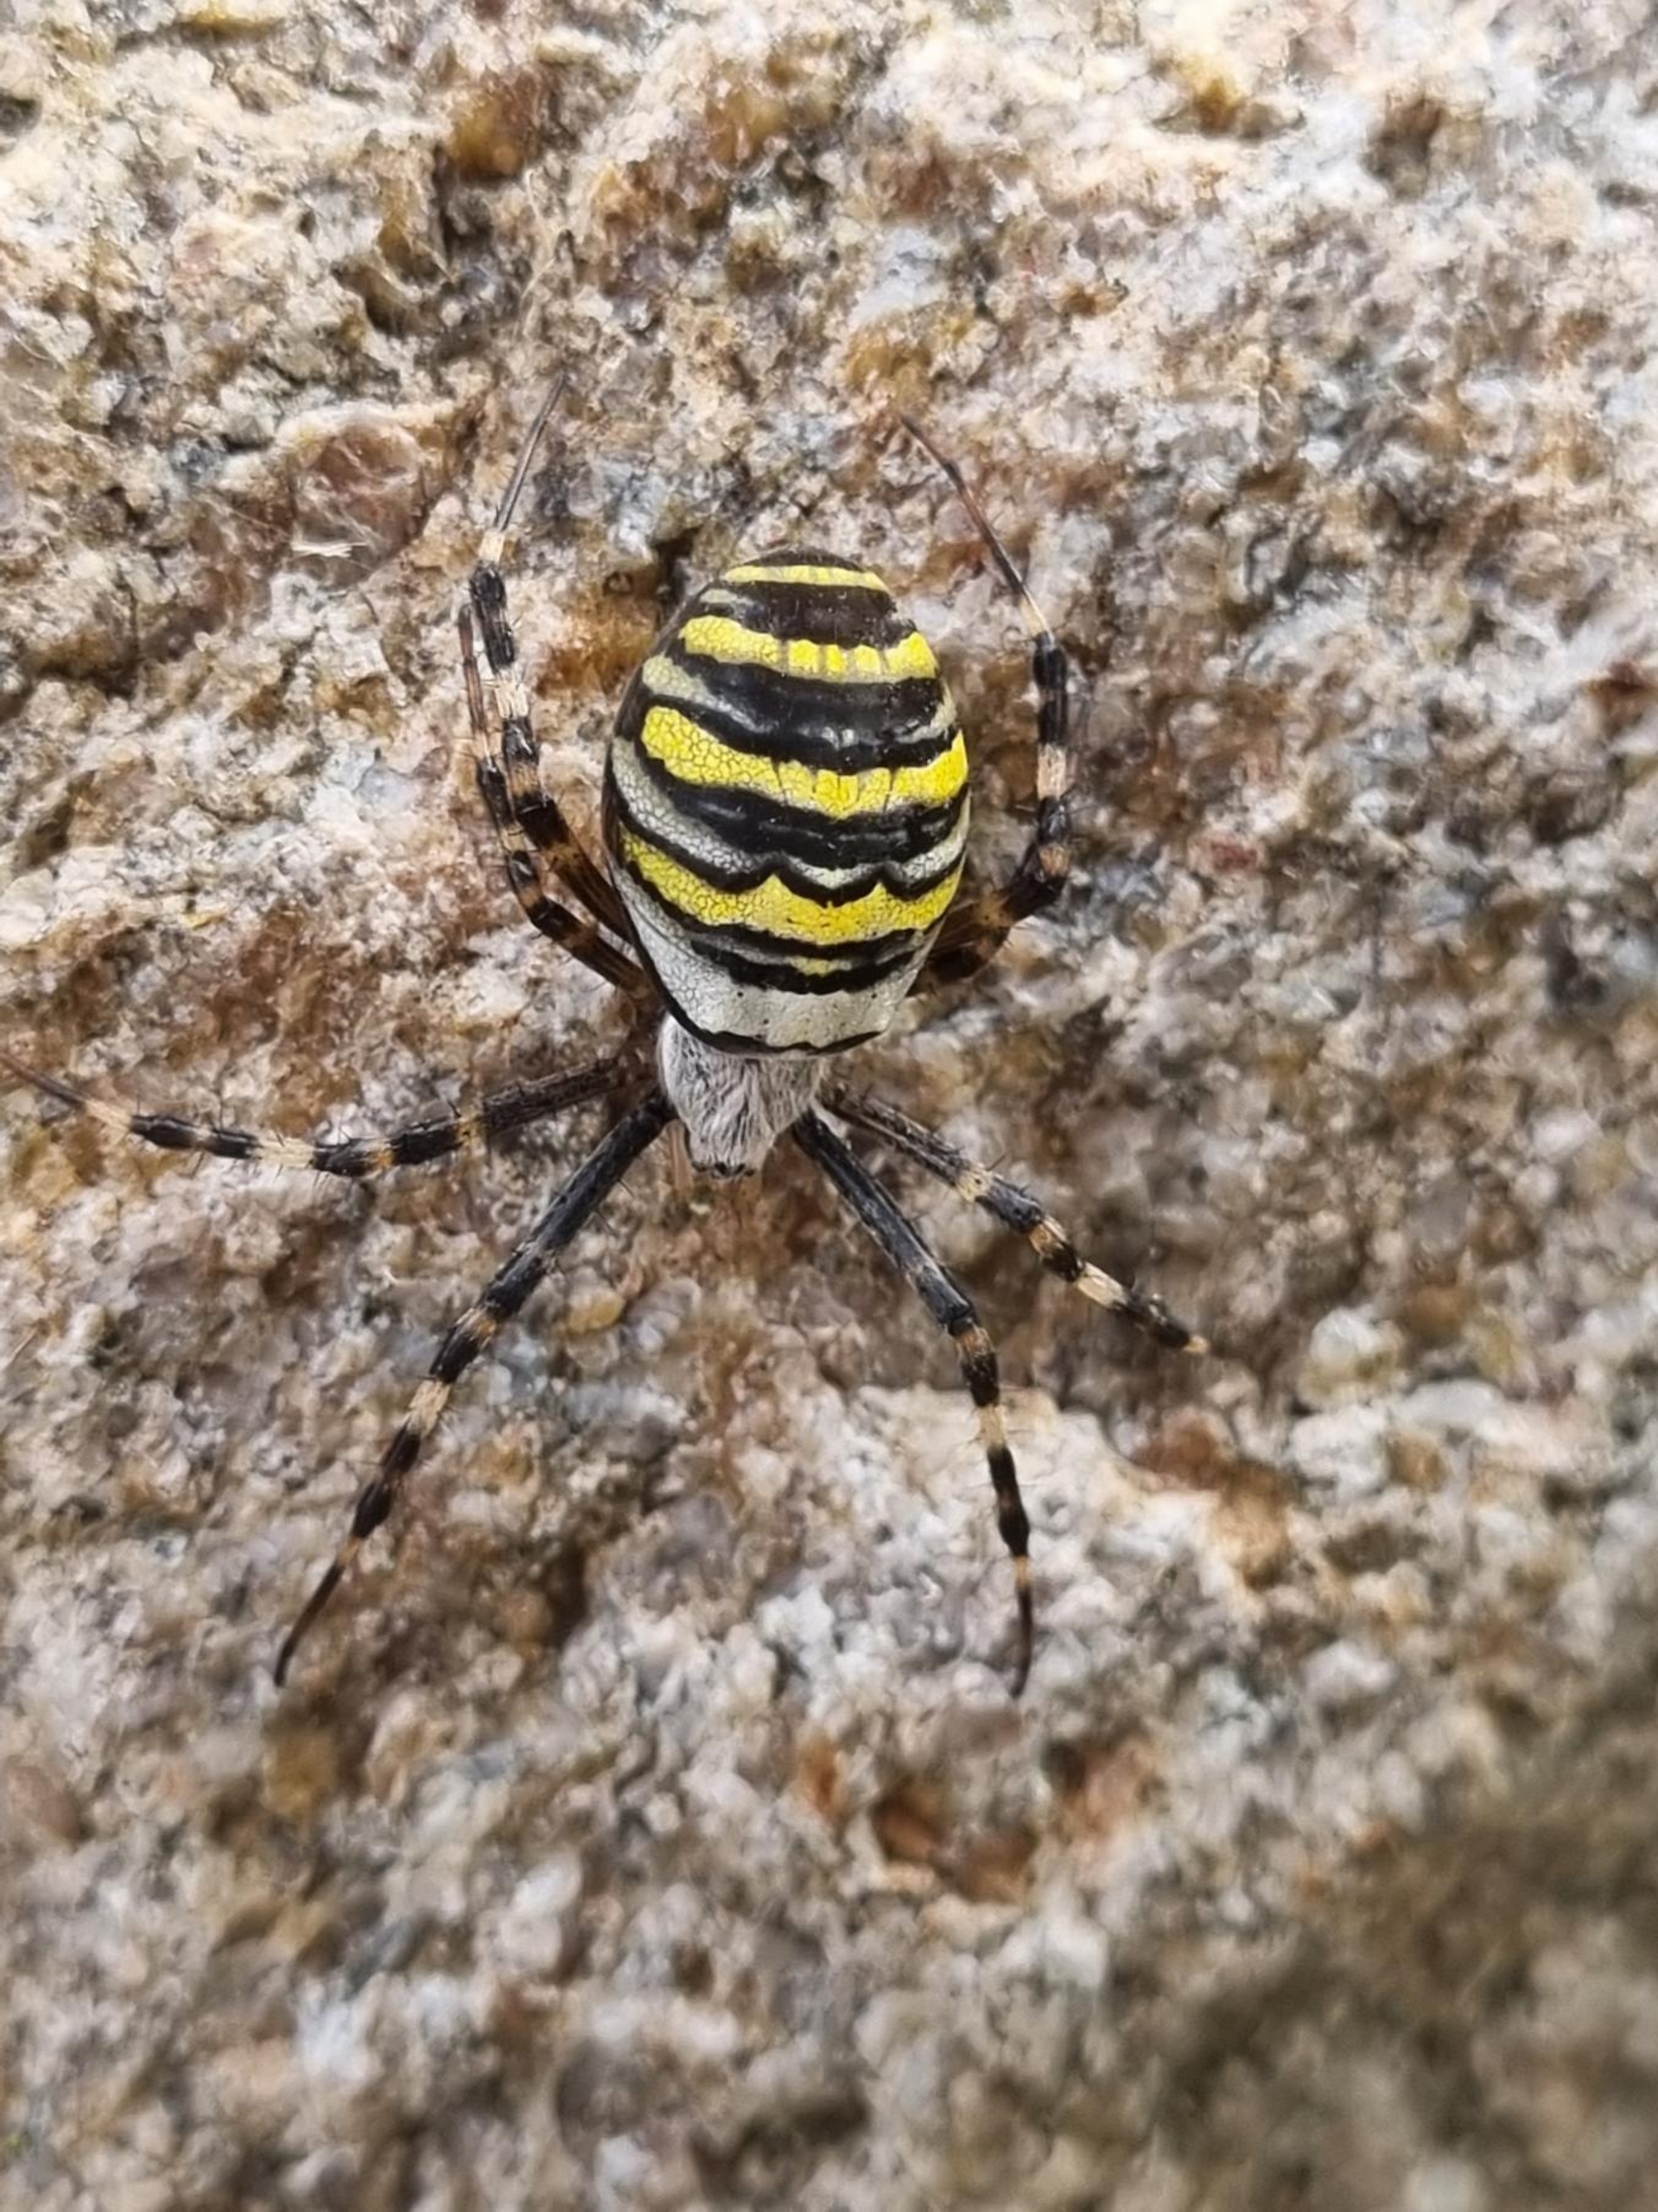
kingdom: Animalia
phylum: Arthropoda
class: Arachnida
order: Araneae
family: Araneidae
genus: Argiope
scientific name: Argiope bruennichi
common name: Hvepseedderkop
